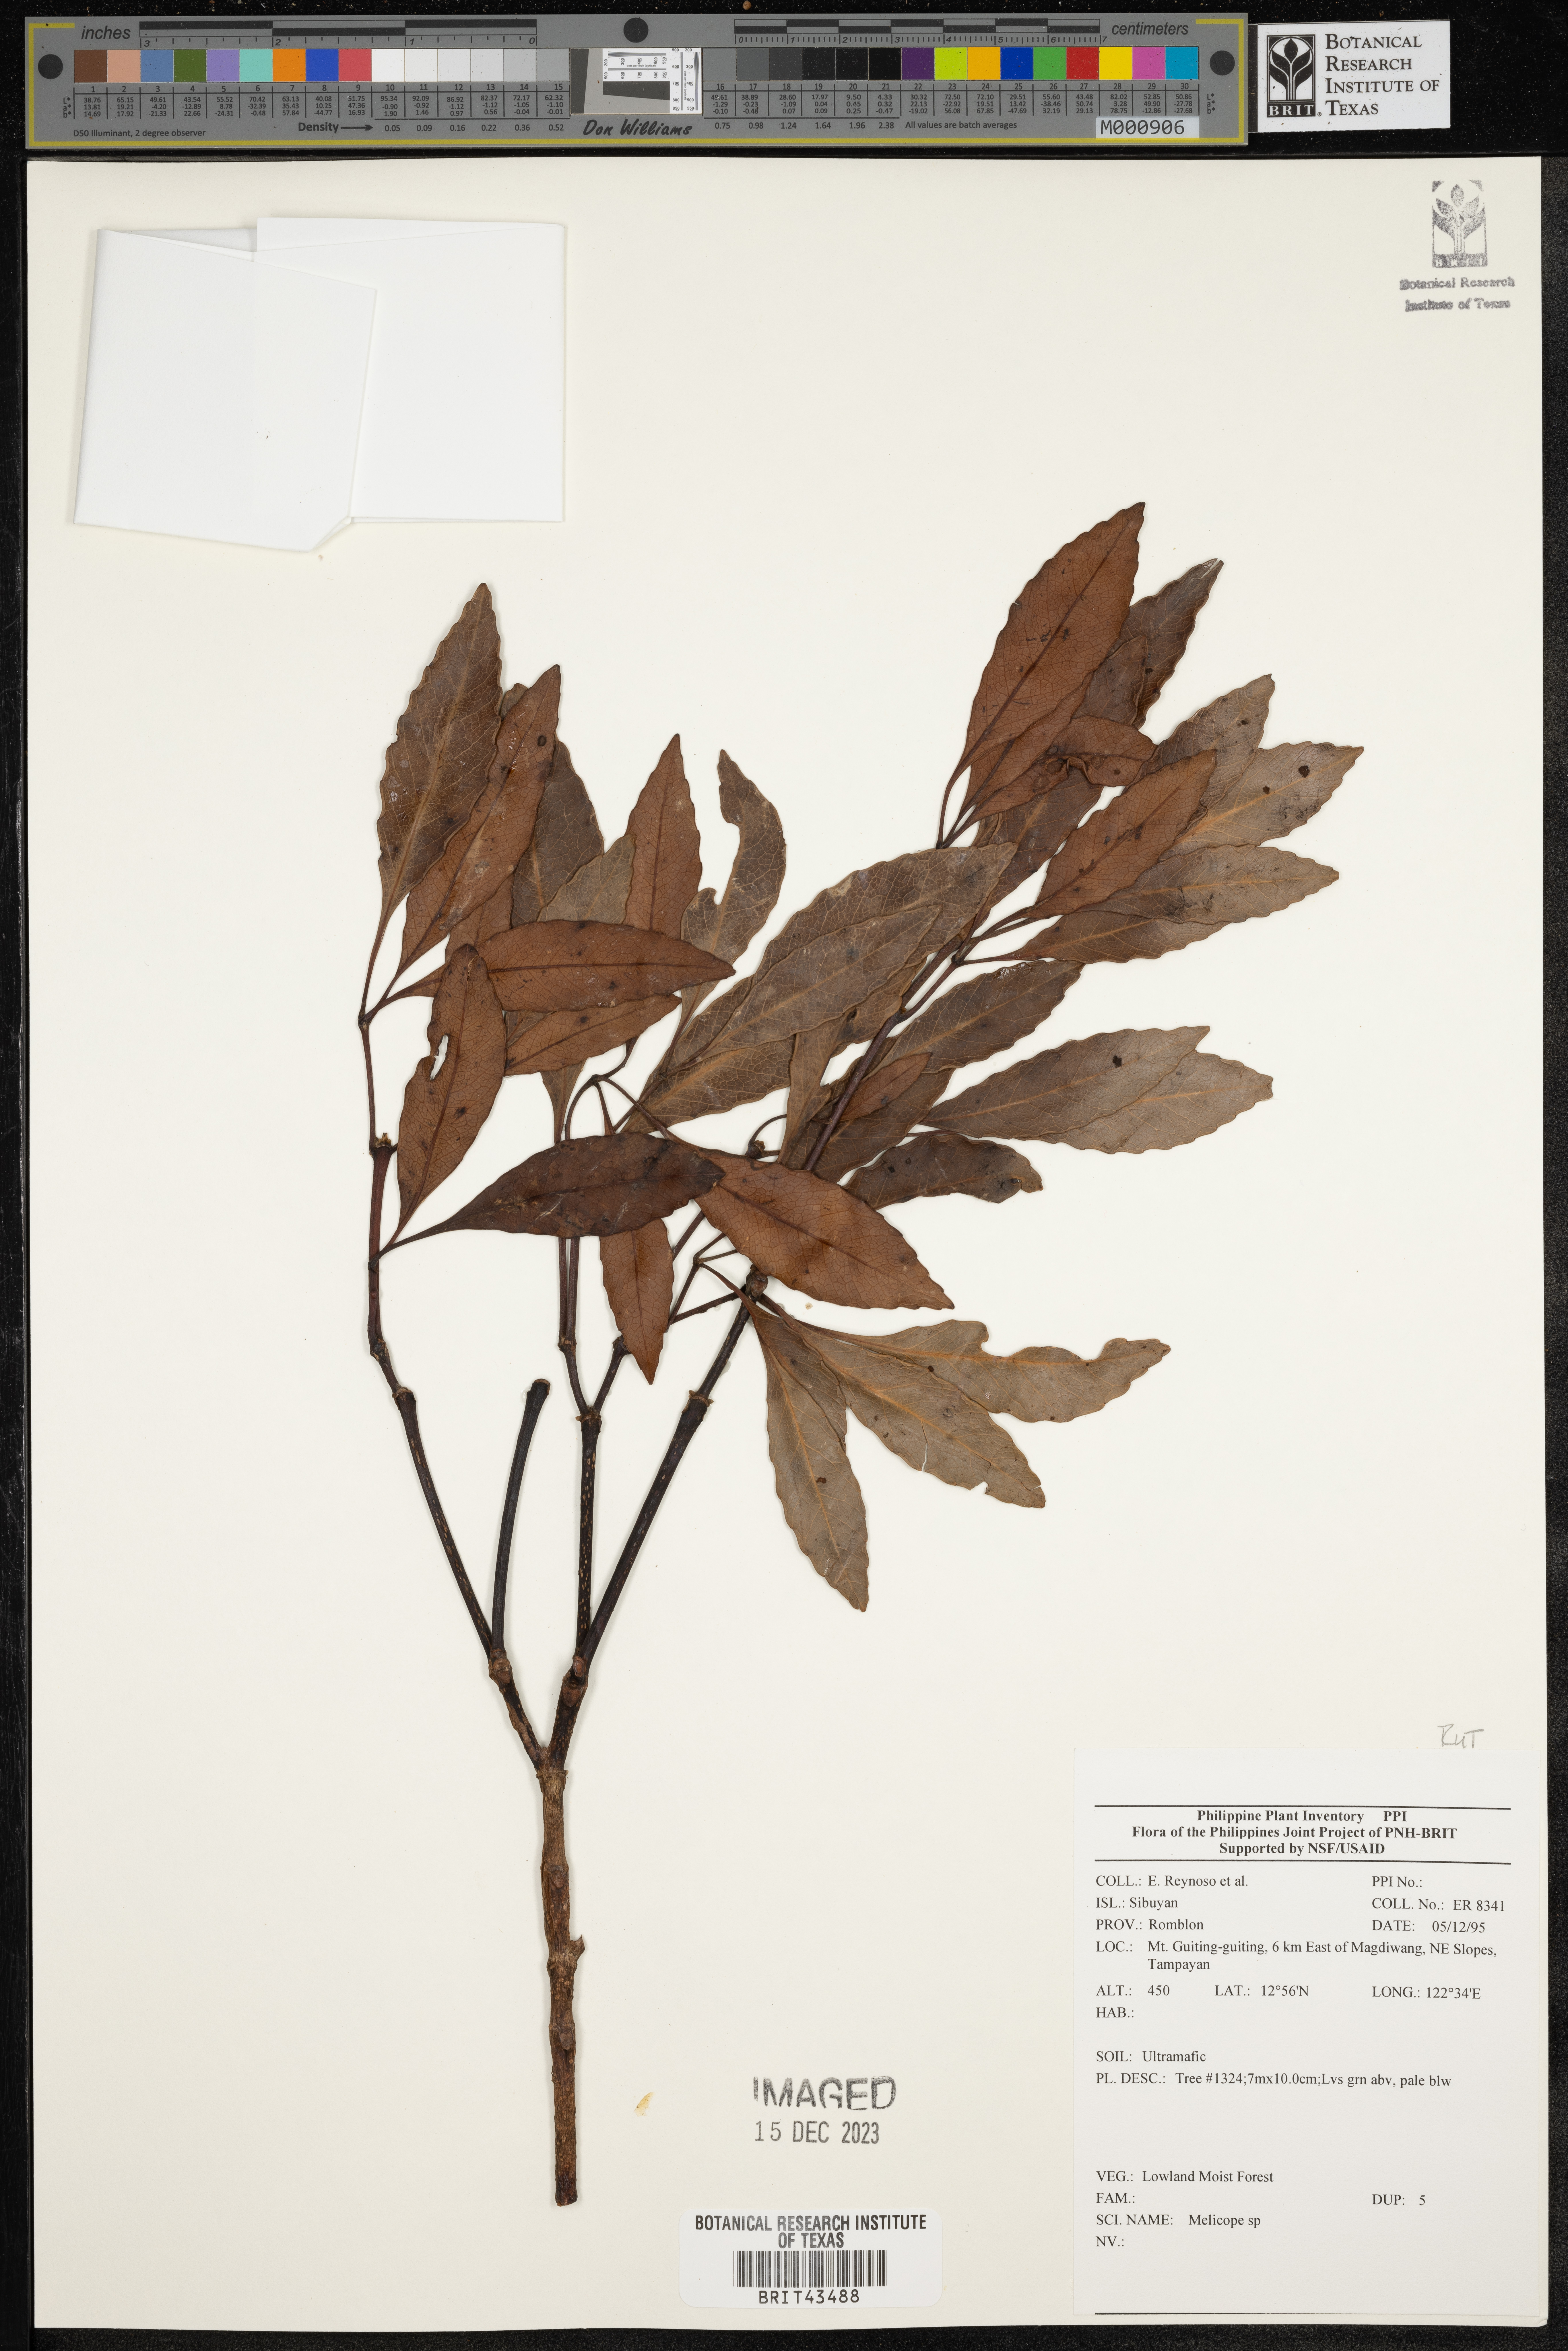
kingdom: Plantae
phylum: Tracheophyta
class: Magnoliopsida
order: Sapindales
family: Rutaceae
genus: Melicope
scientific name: Melicope
